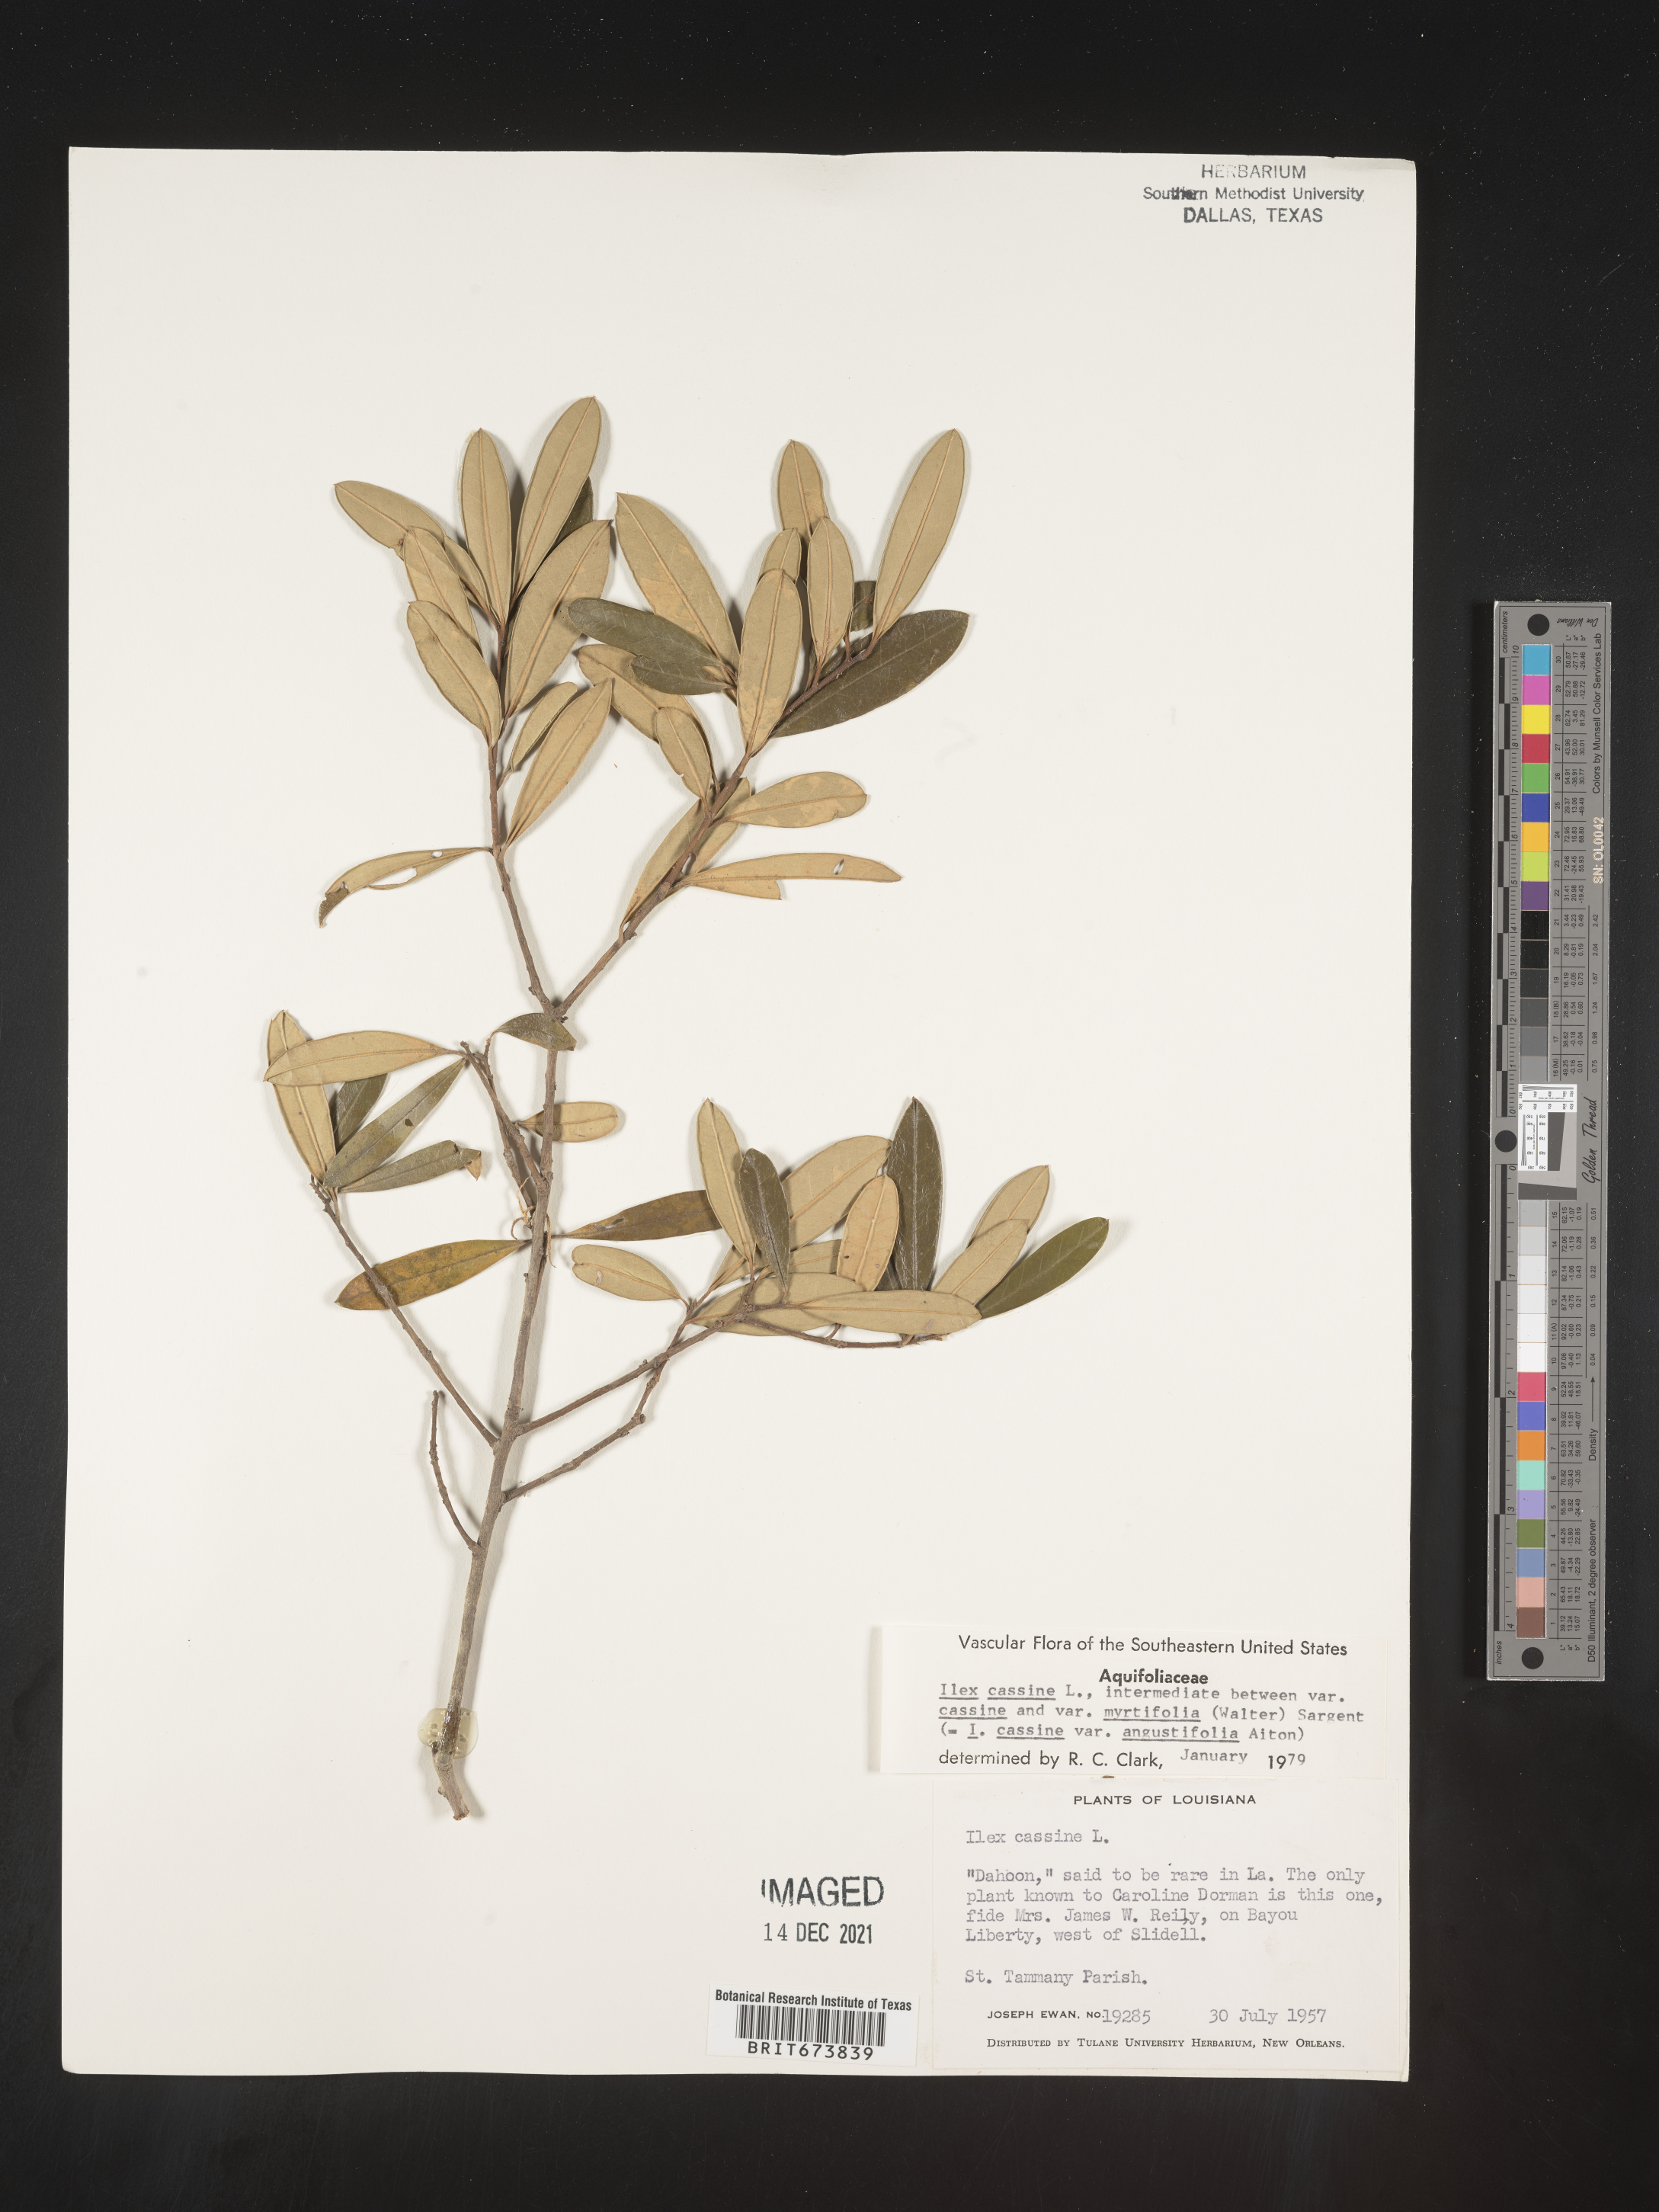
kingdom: Plantae
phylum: Tracheophyta
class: Magnoliopsida
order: Aquifoliales
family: Aquifoliaceae
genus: Ilex
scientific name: Ilex myrtifolia
